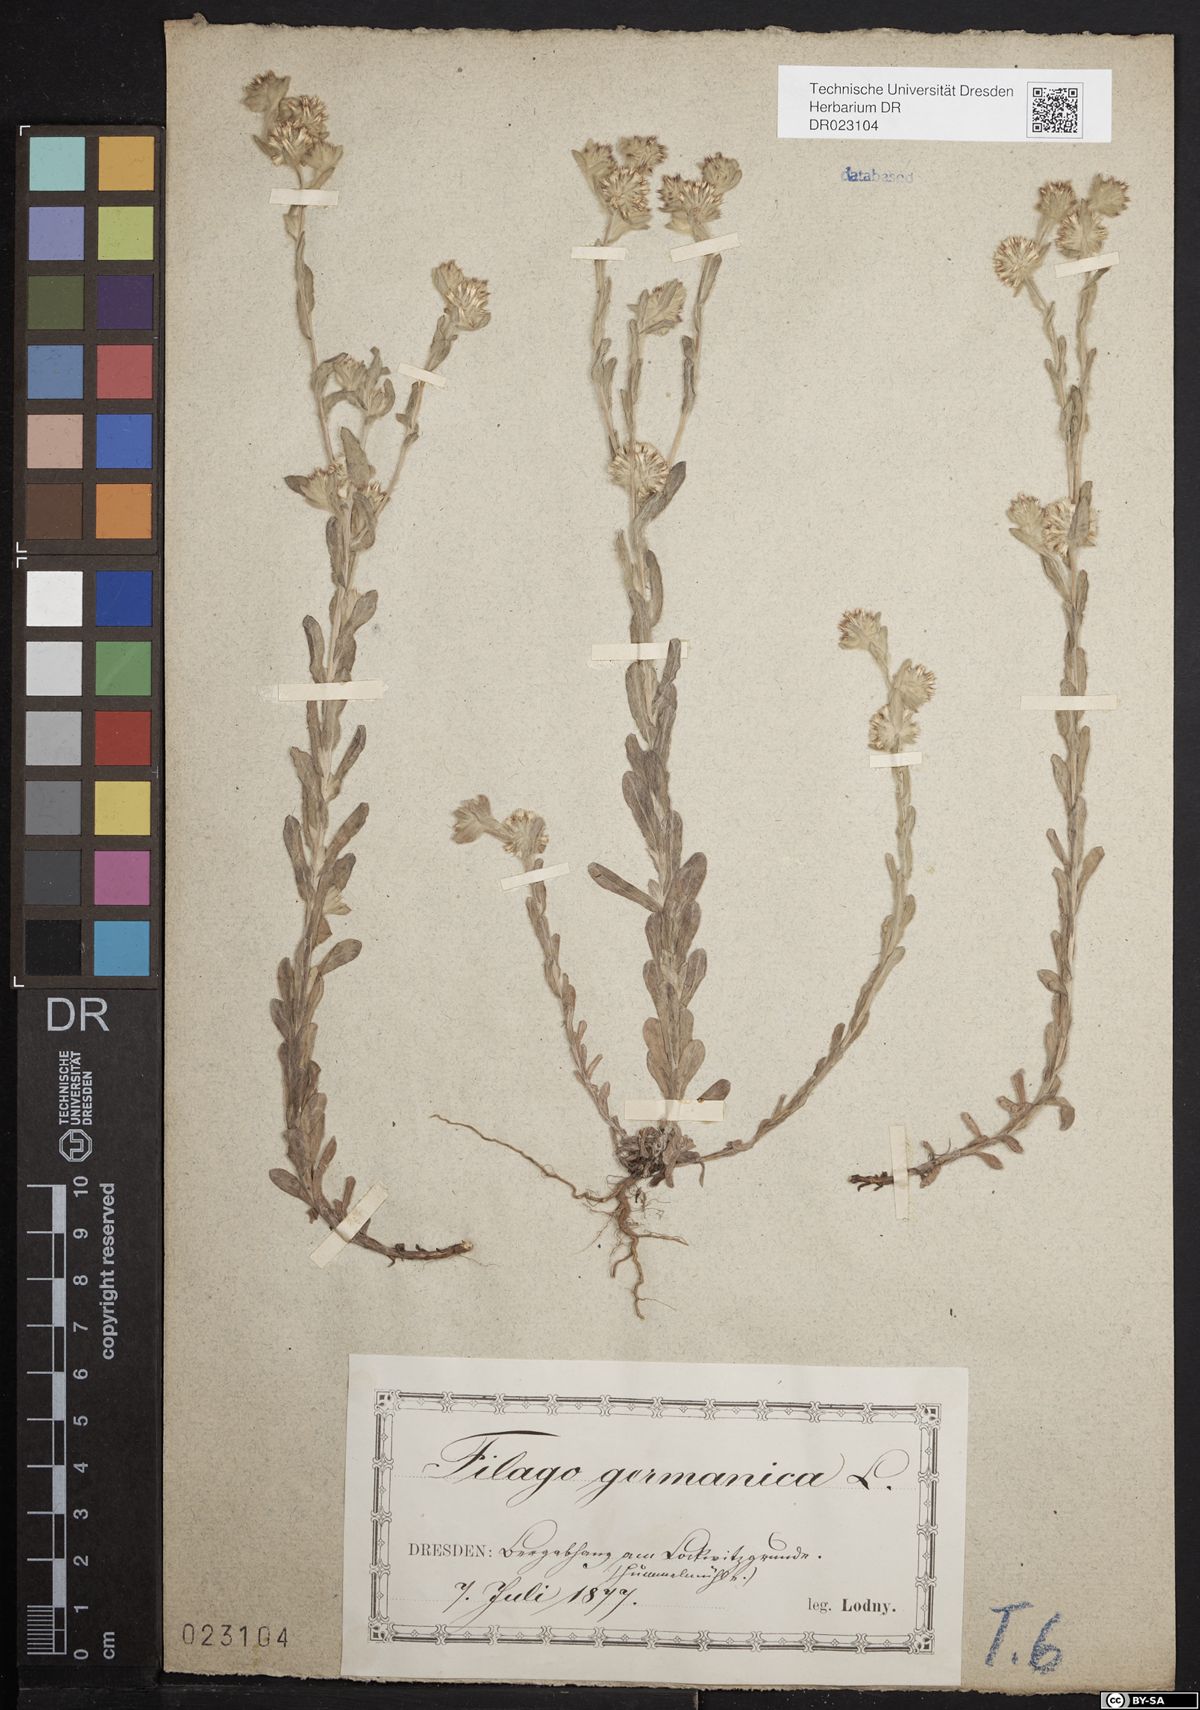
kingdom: Plantae
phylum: Tracheophyta
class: Magnoliopsida
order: Asterales
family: Asteraceae
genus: Filago
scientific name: Filago germanica
